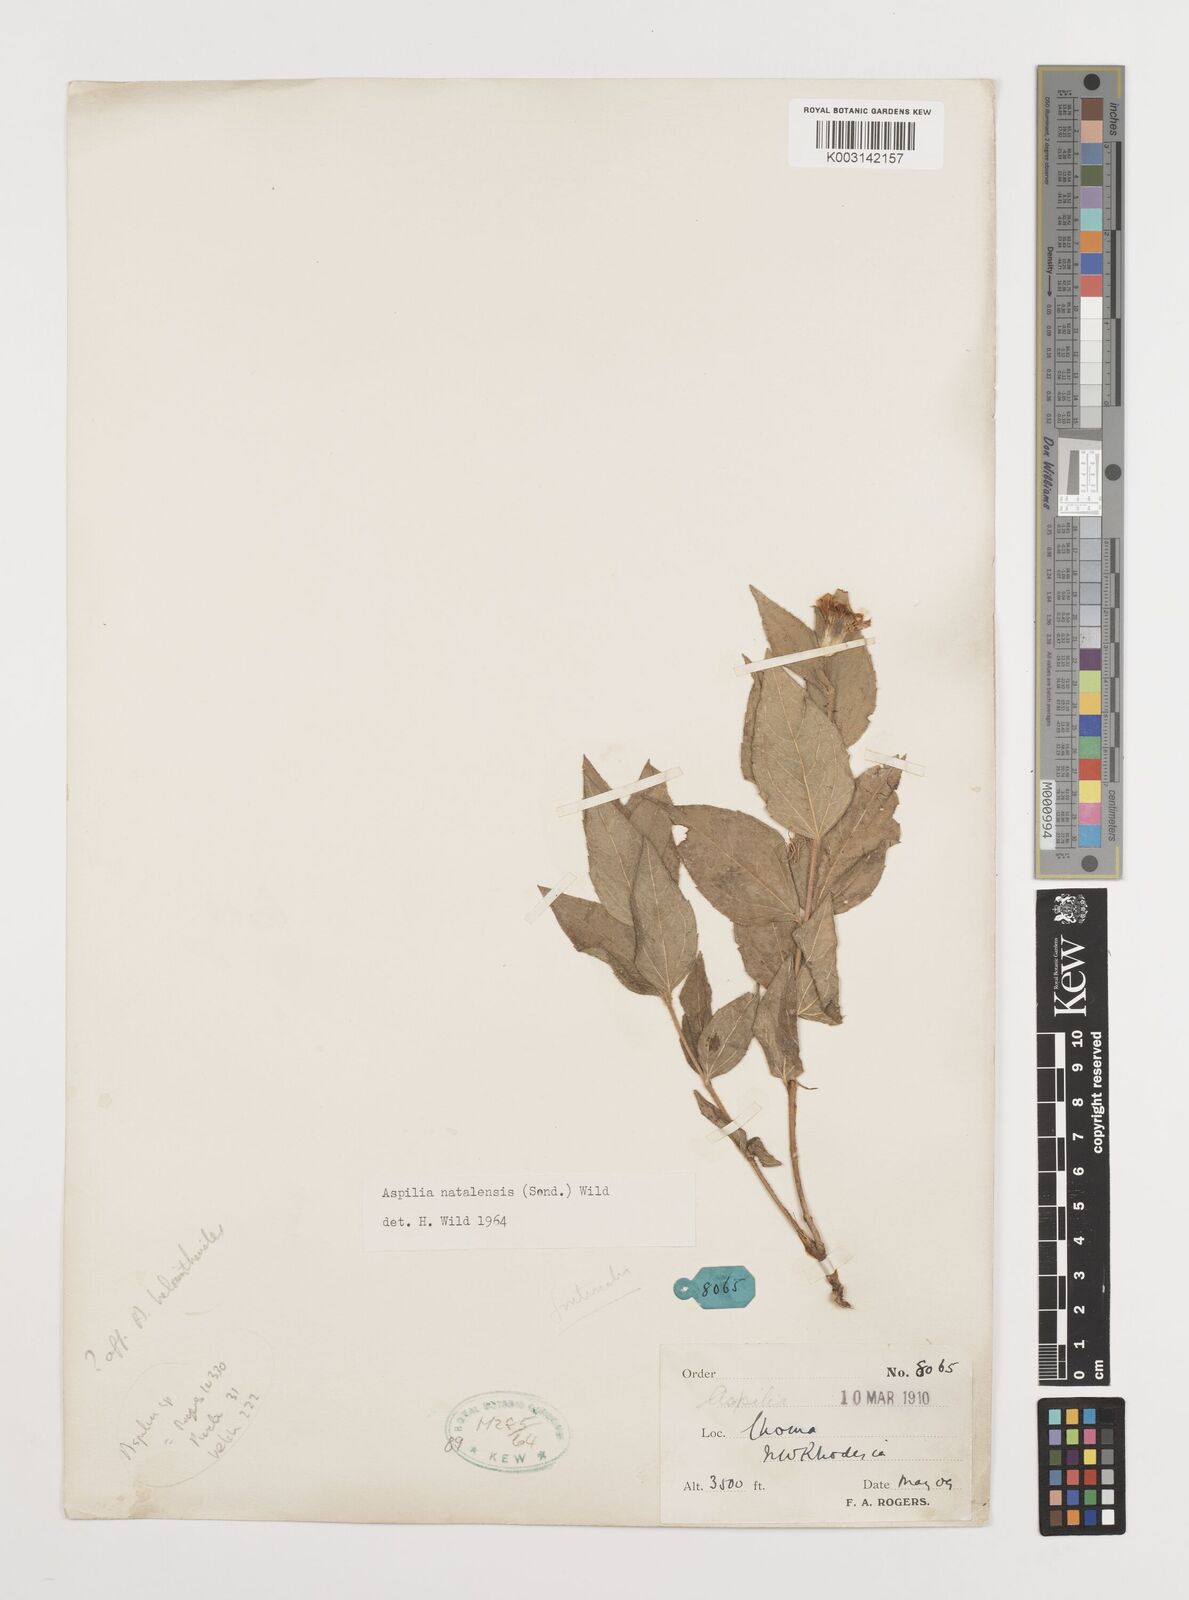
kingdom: Plantae
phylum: Tracheophyta
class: Magnoliopsida
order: Asterales
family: Asteraceae
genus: Aspilia
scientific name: Aspilia natalensis
